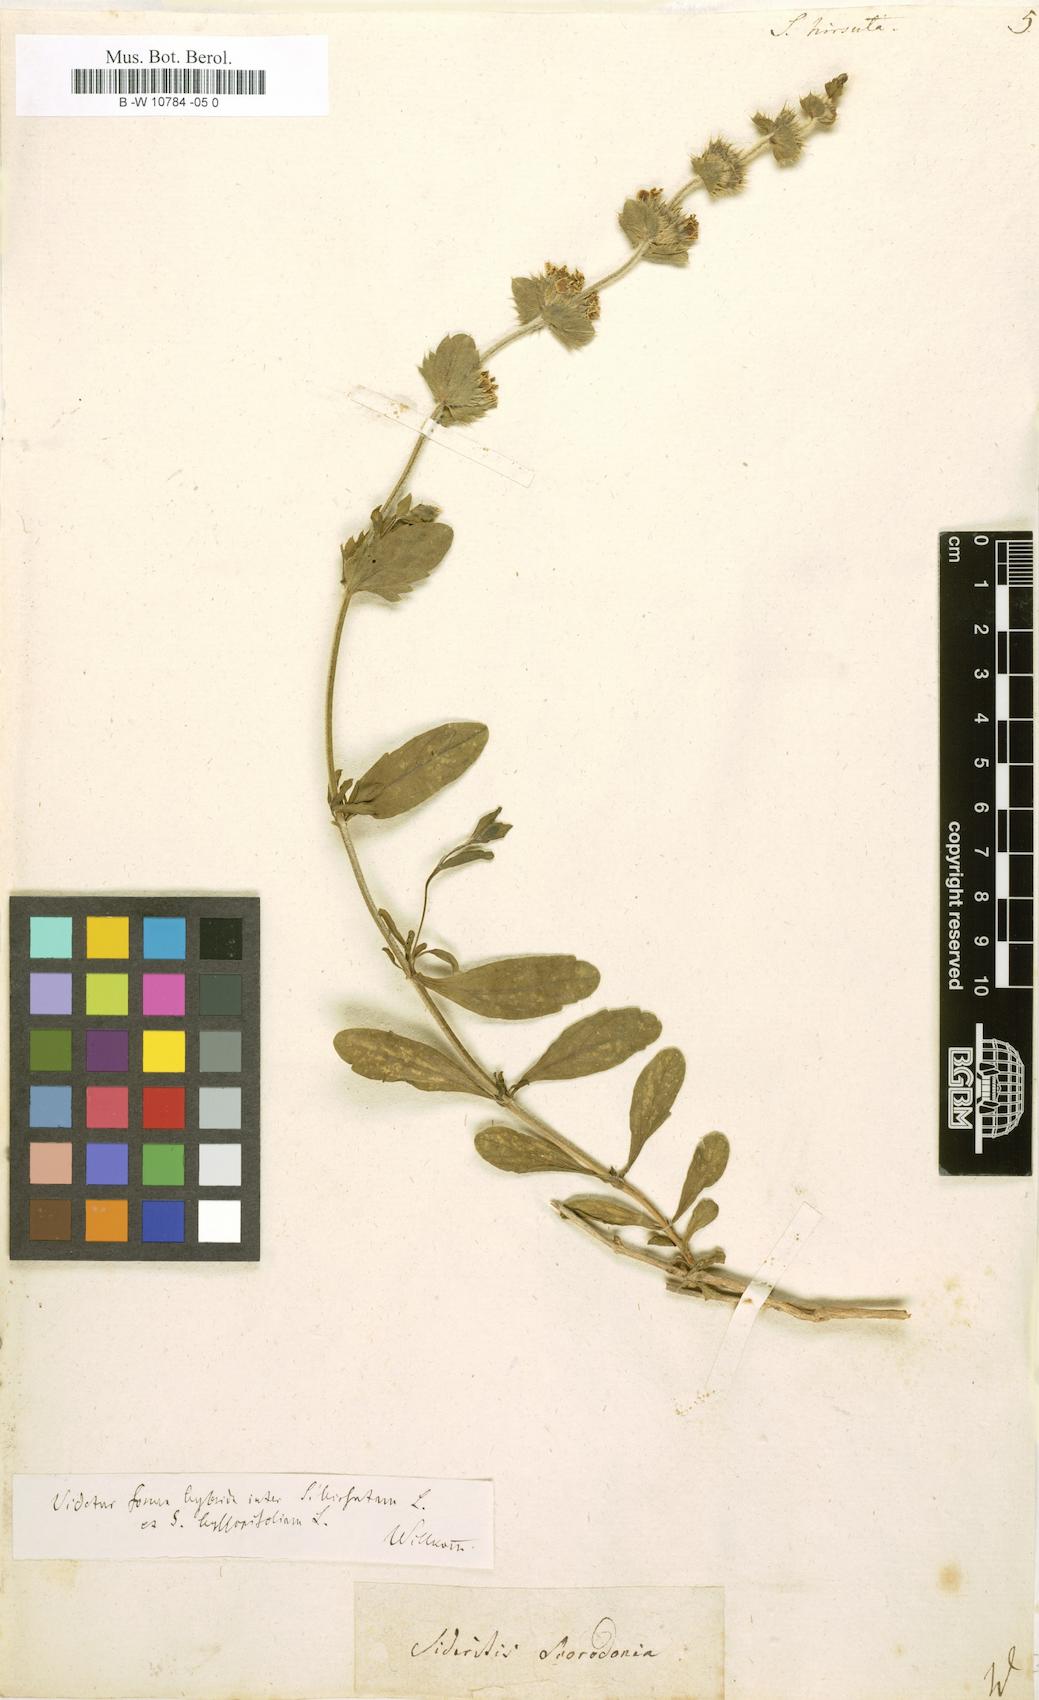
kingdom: Plantae
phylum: Tracheophyta
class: Magnoliopsida
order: Lamiales
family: Lamiaceae
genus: Sideritis
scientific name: Sideritis hirsuta
